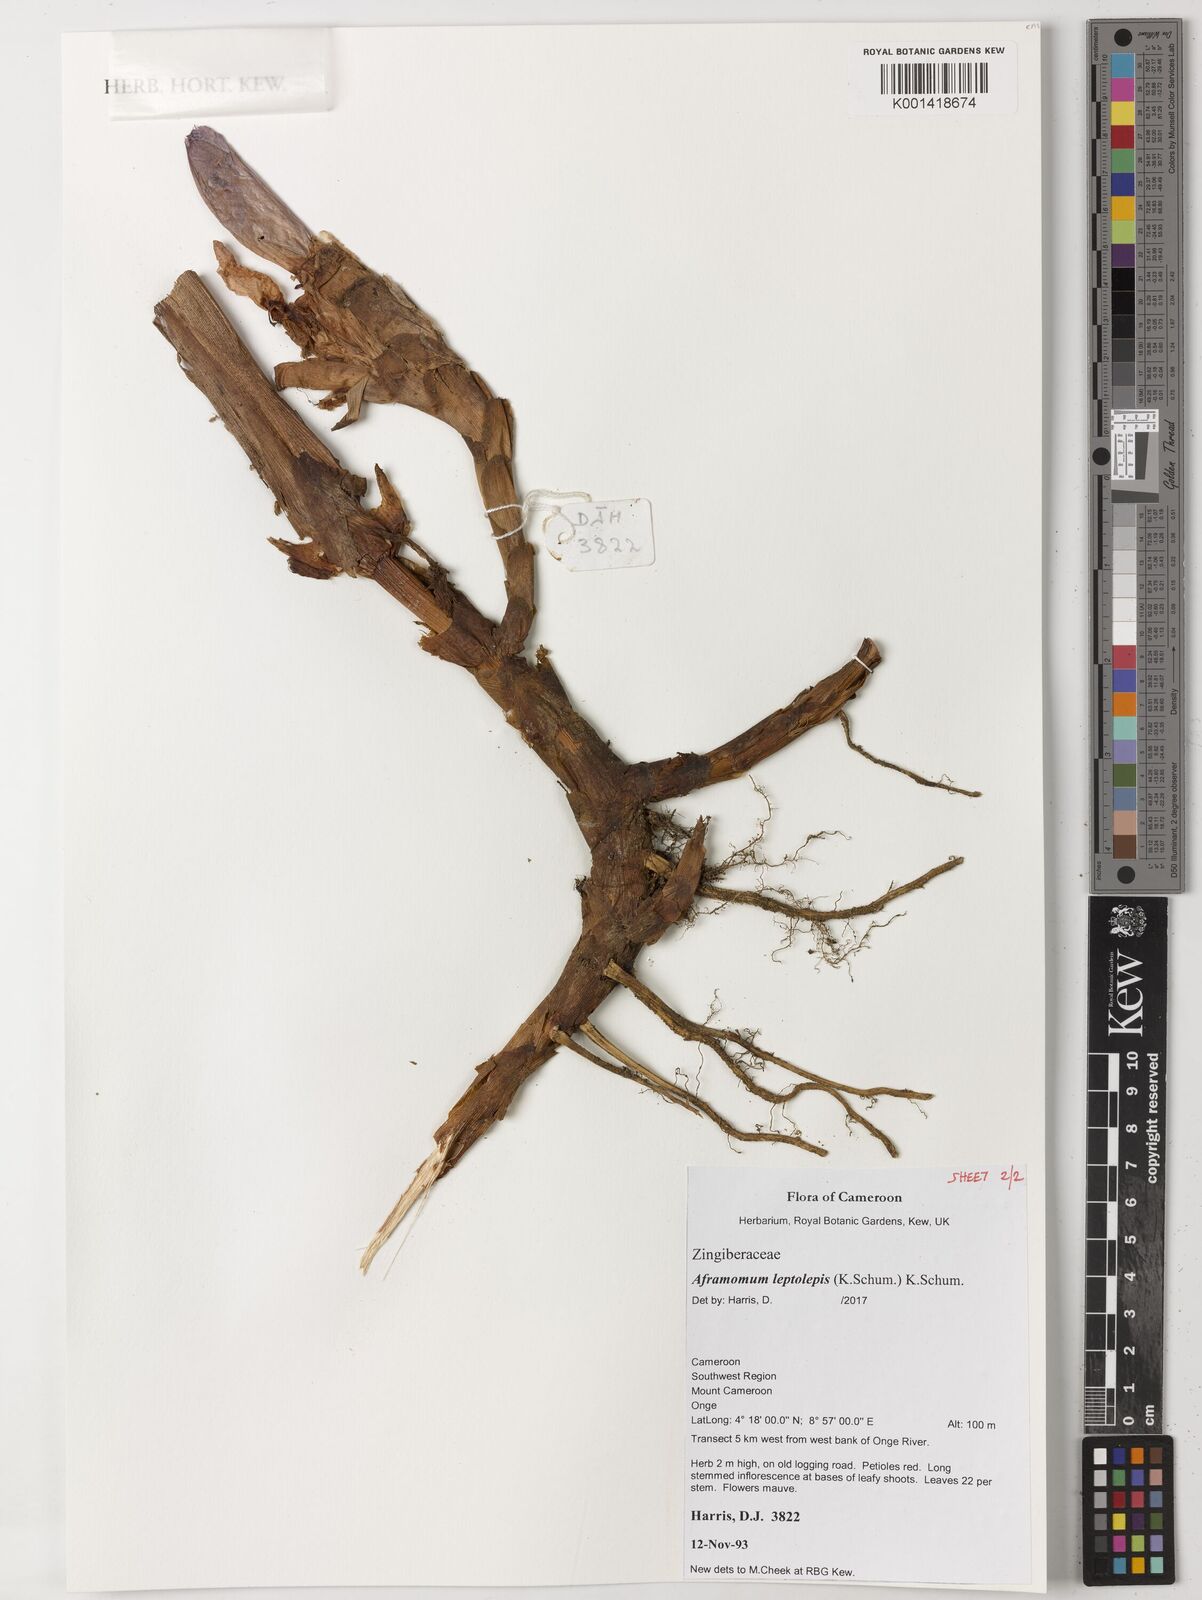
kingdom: Plantae
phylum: Tracheophyta
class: Liliopsida
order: Zingiberales
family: Zingiberaceae
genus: Aframomum
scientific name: Aframomum leptolepis
